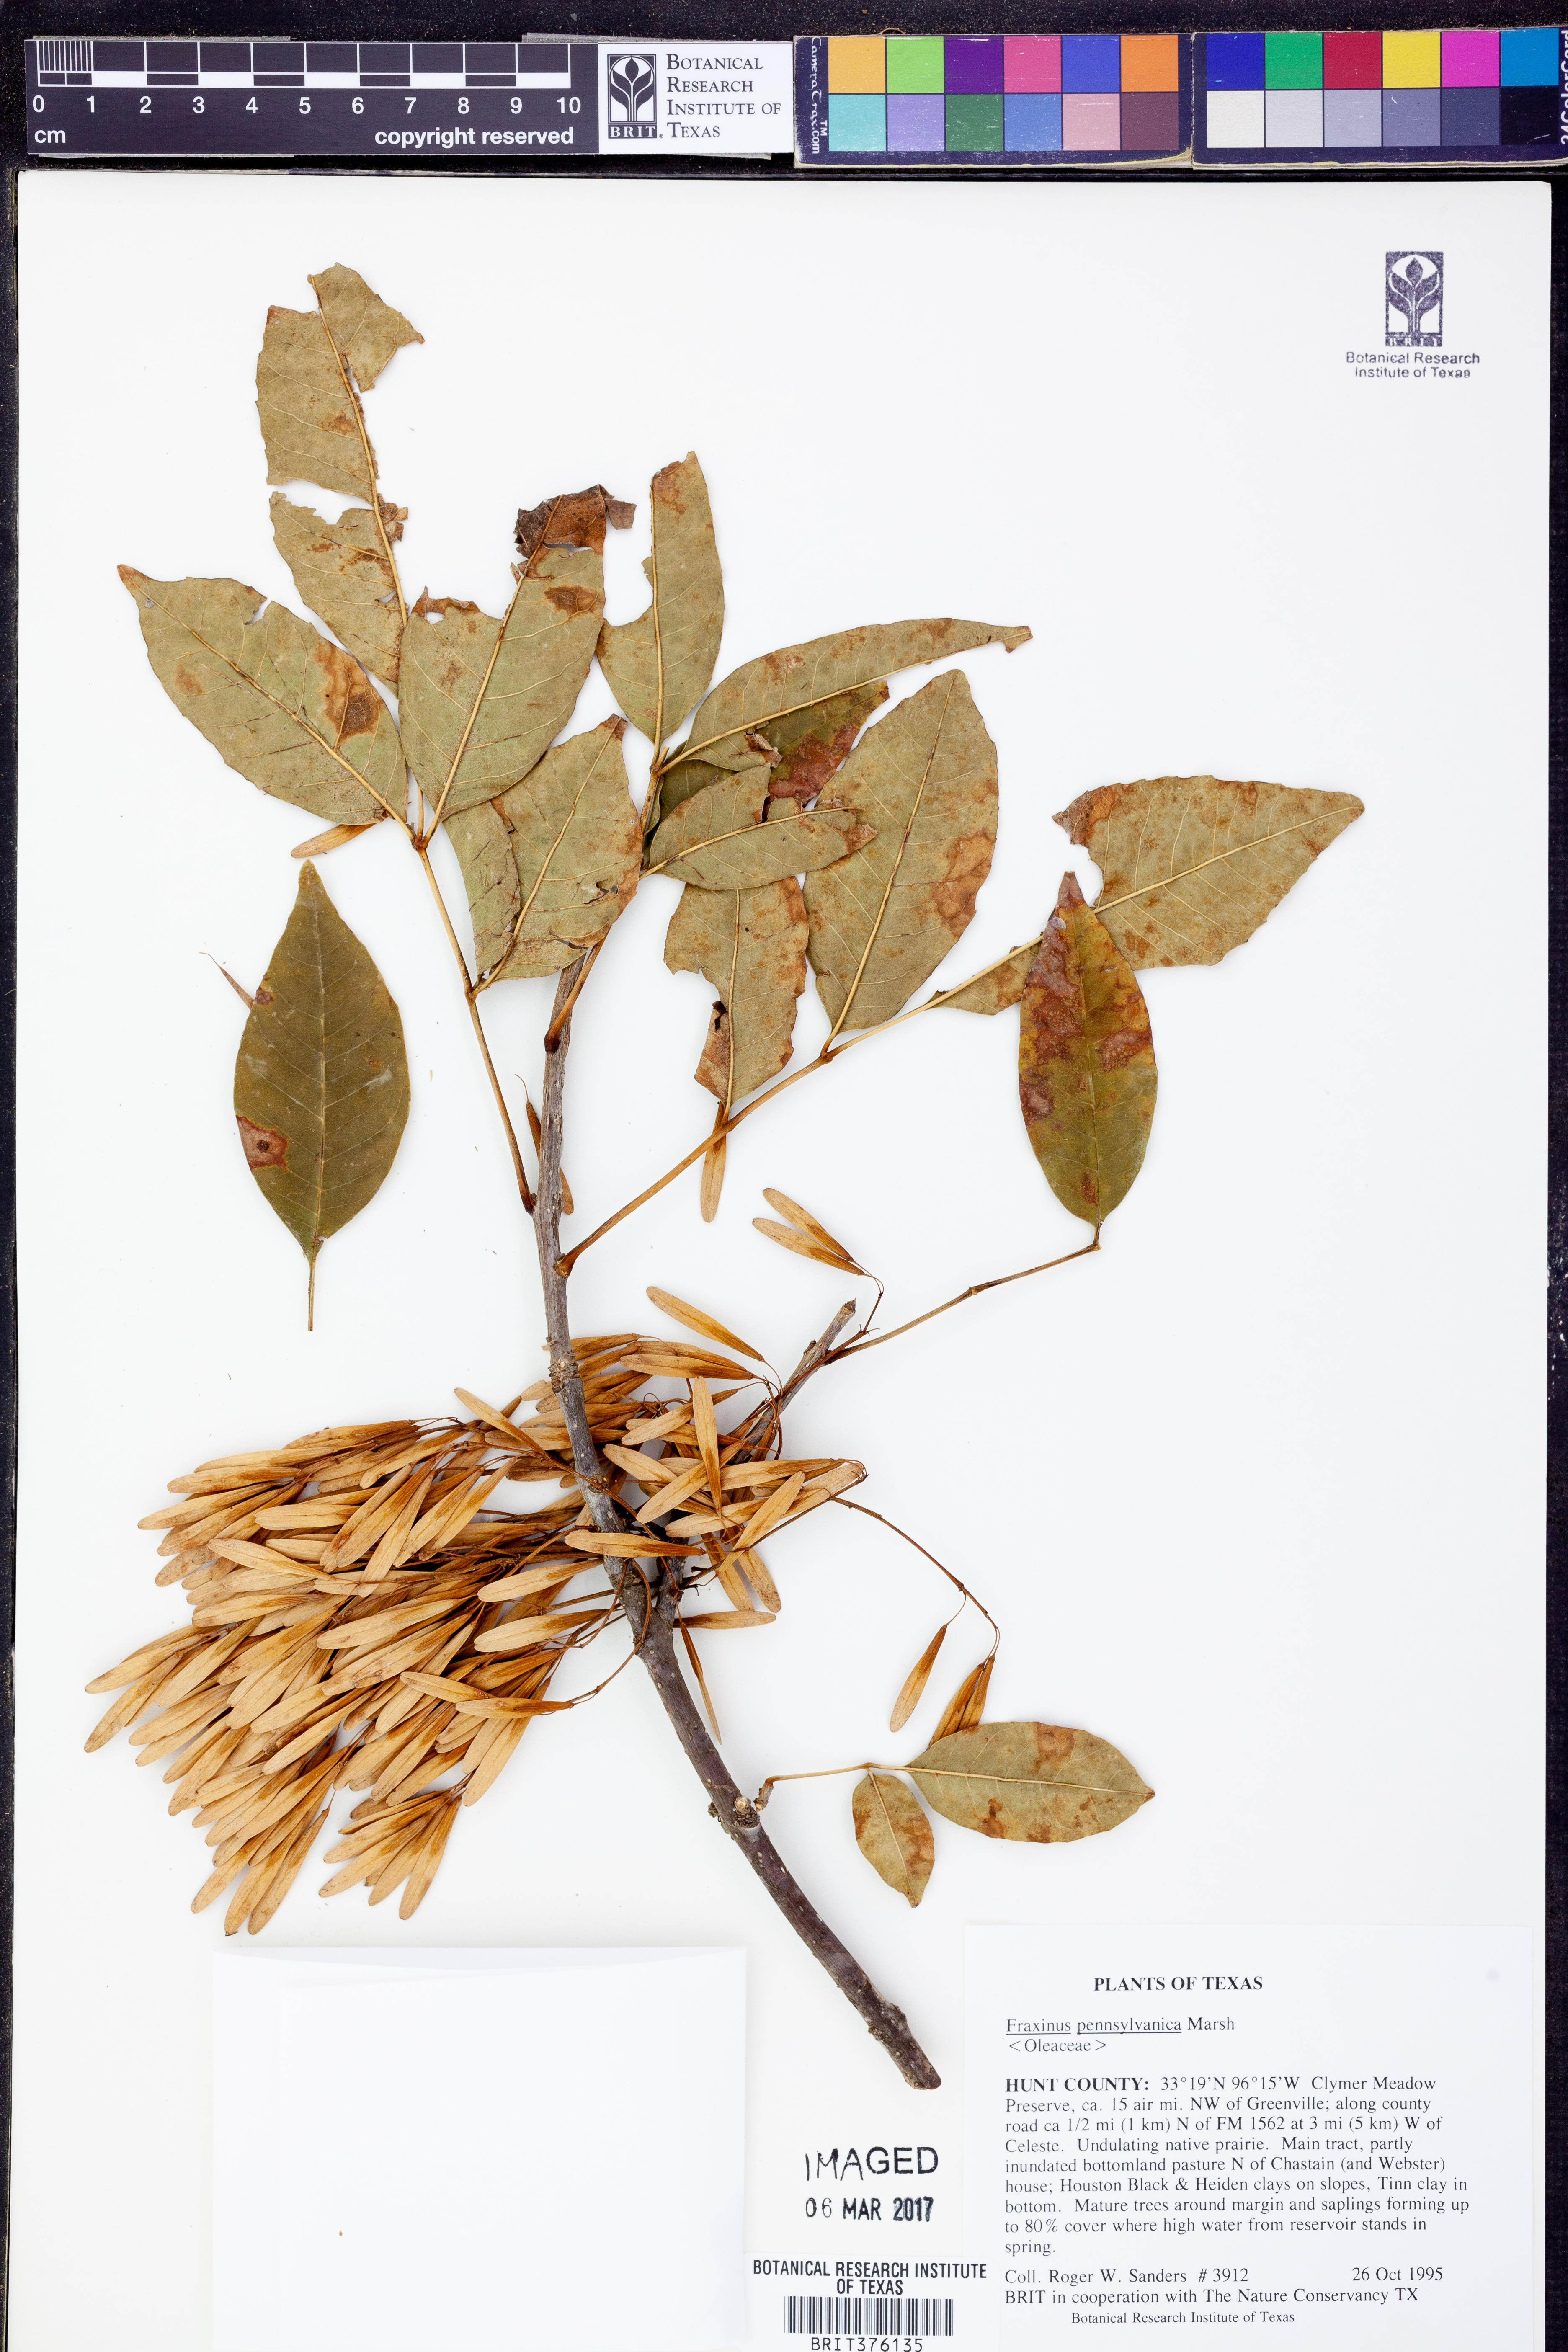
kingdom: Plantae
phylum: Tracheophyta
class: Magnoliopsida
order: Lamiales
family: Oleaceae
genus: Fraxinus
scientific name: Fraxinus pennsylvanica
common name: Green ash
